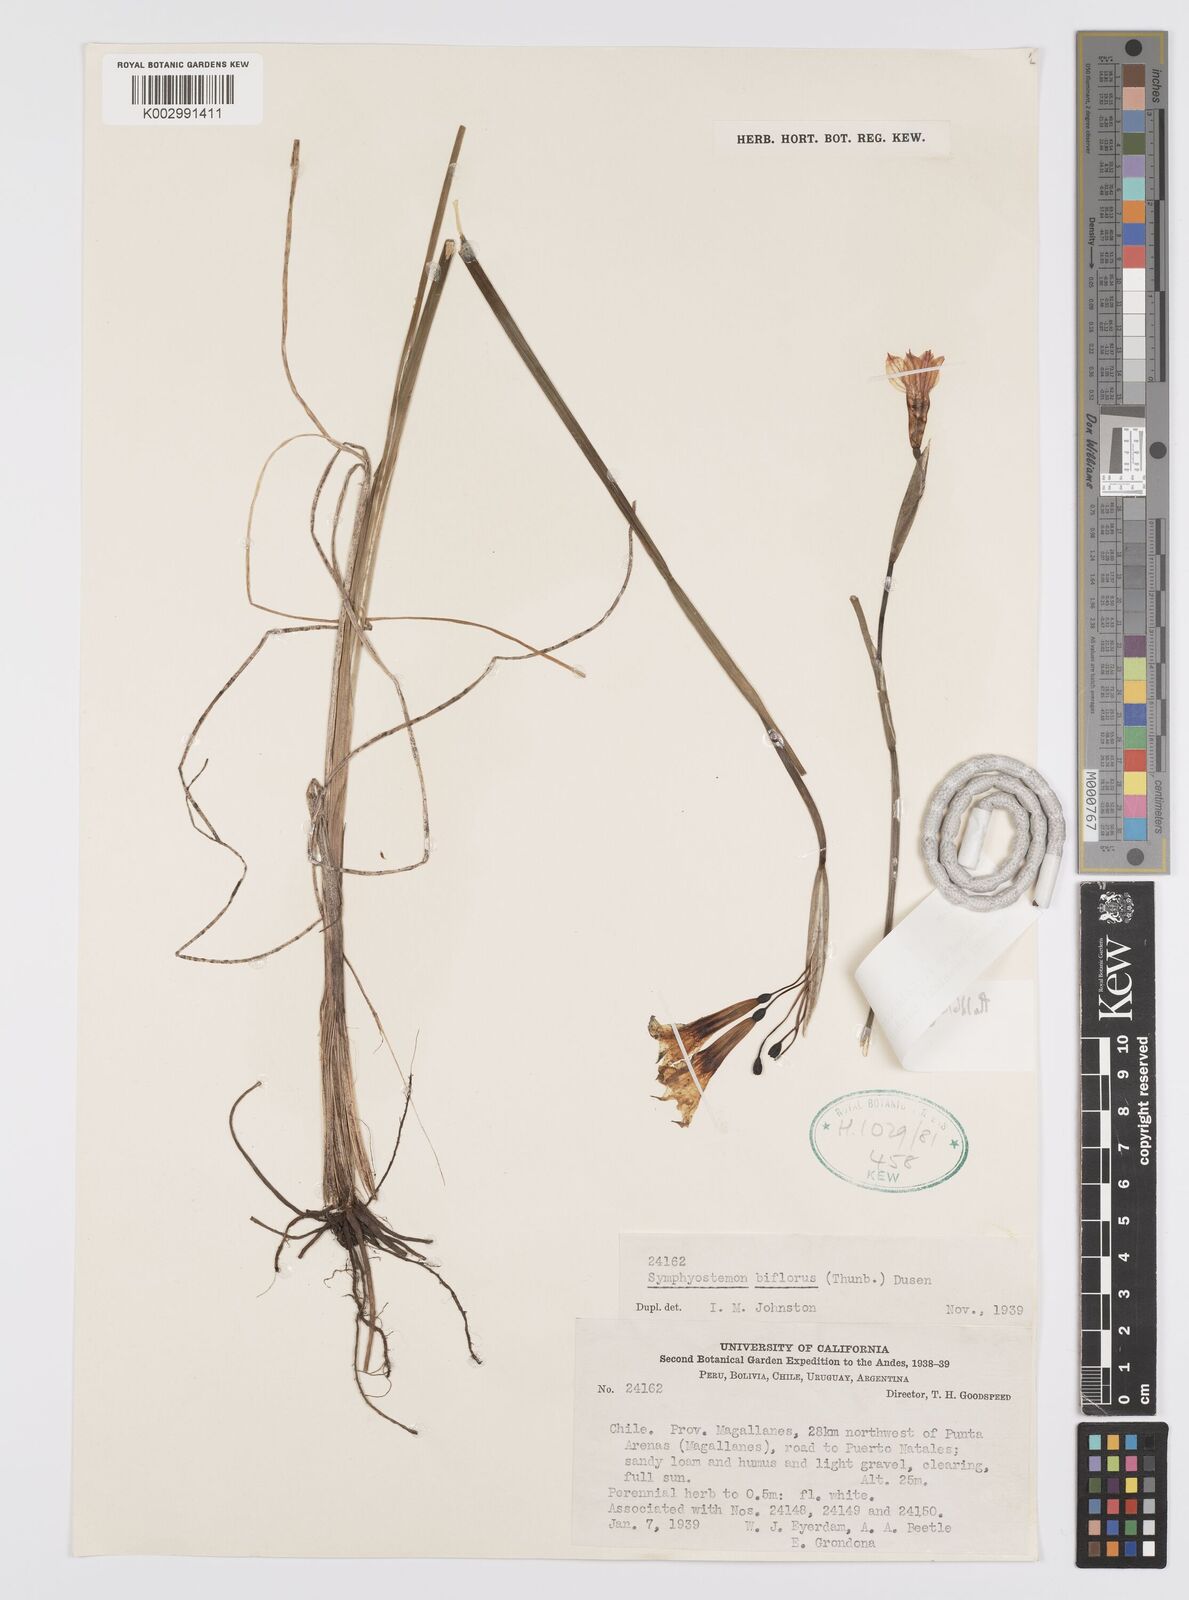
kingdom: Plantae
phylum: Tracheophyta
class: Liliopsida
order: Asparagales
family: Iridaceae
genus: Olsynium
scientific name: Olsynium biflorum
